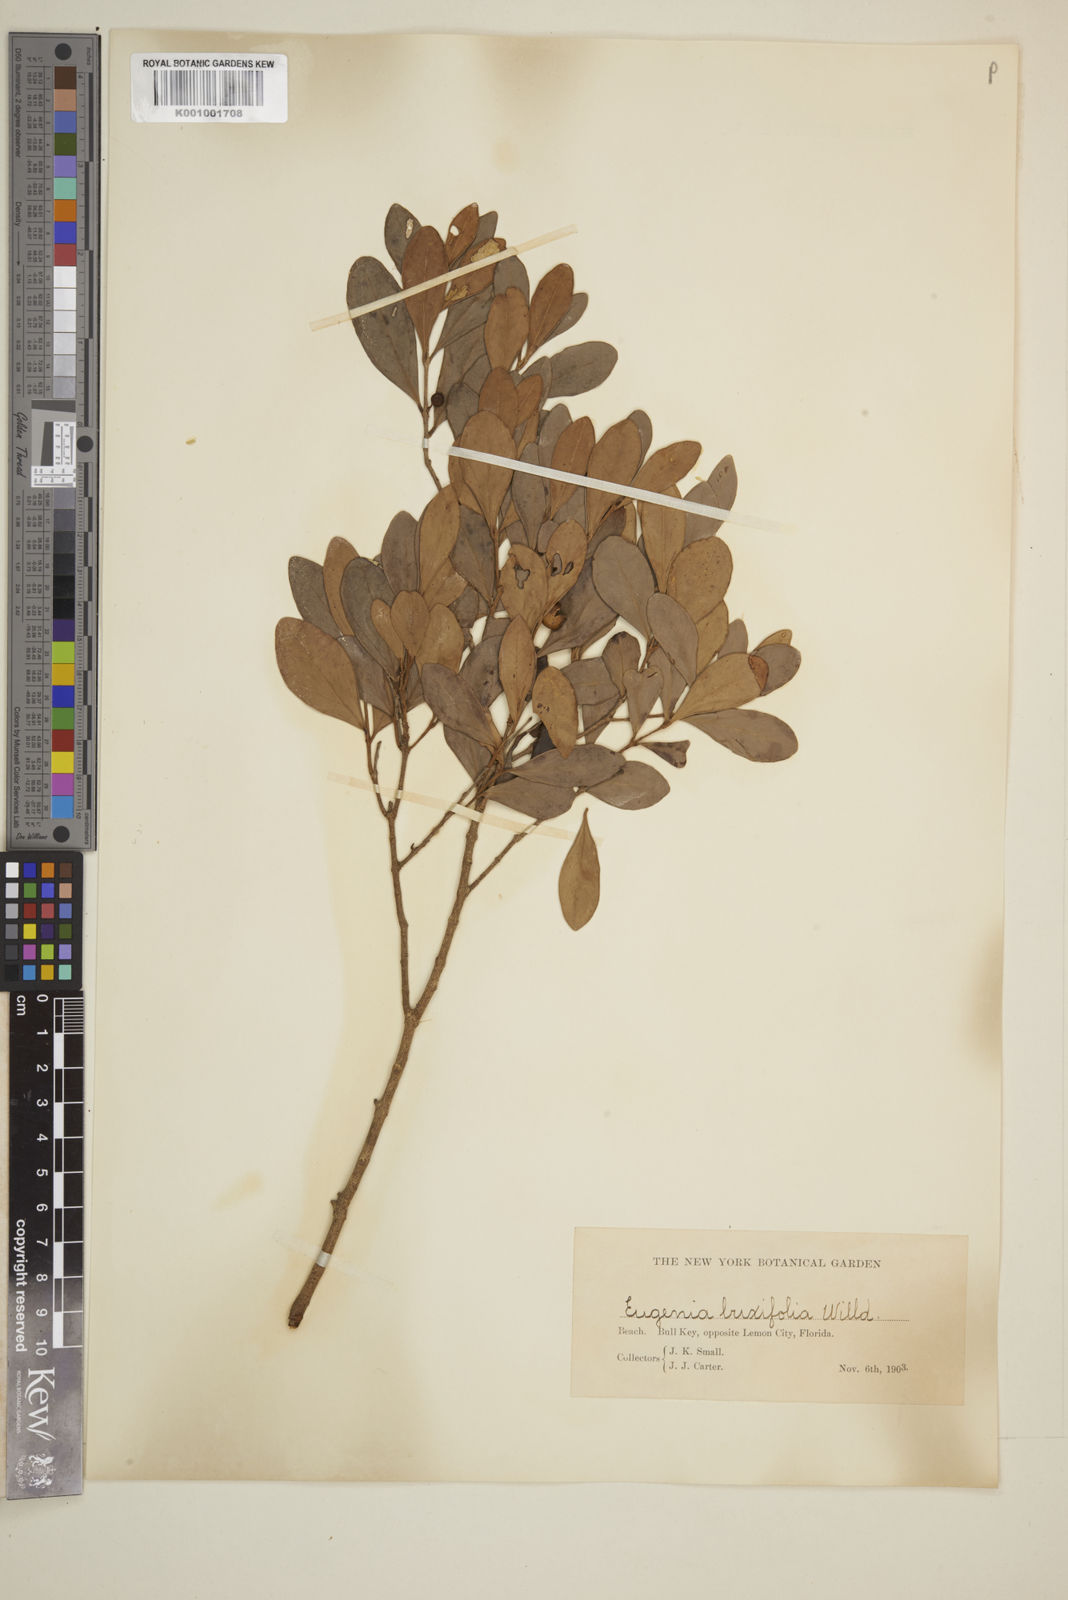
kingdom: Plantae
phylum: Tracheophyta
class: Magnoliopsida
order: Myrtales
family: Myrtaceae
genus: Eugenia
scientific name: Eugenia buxifolia
